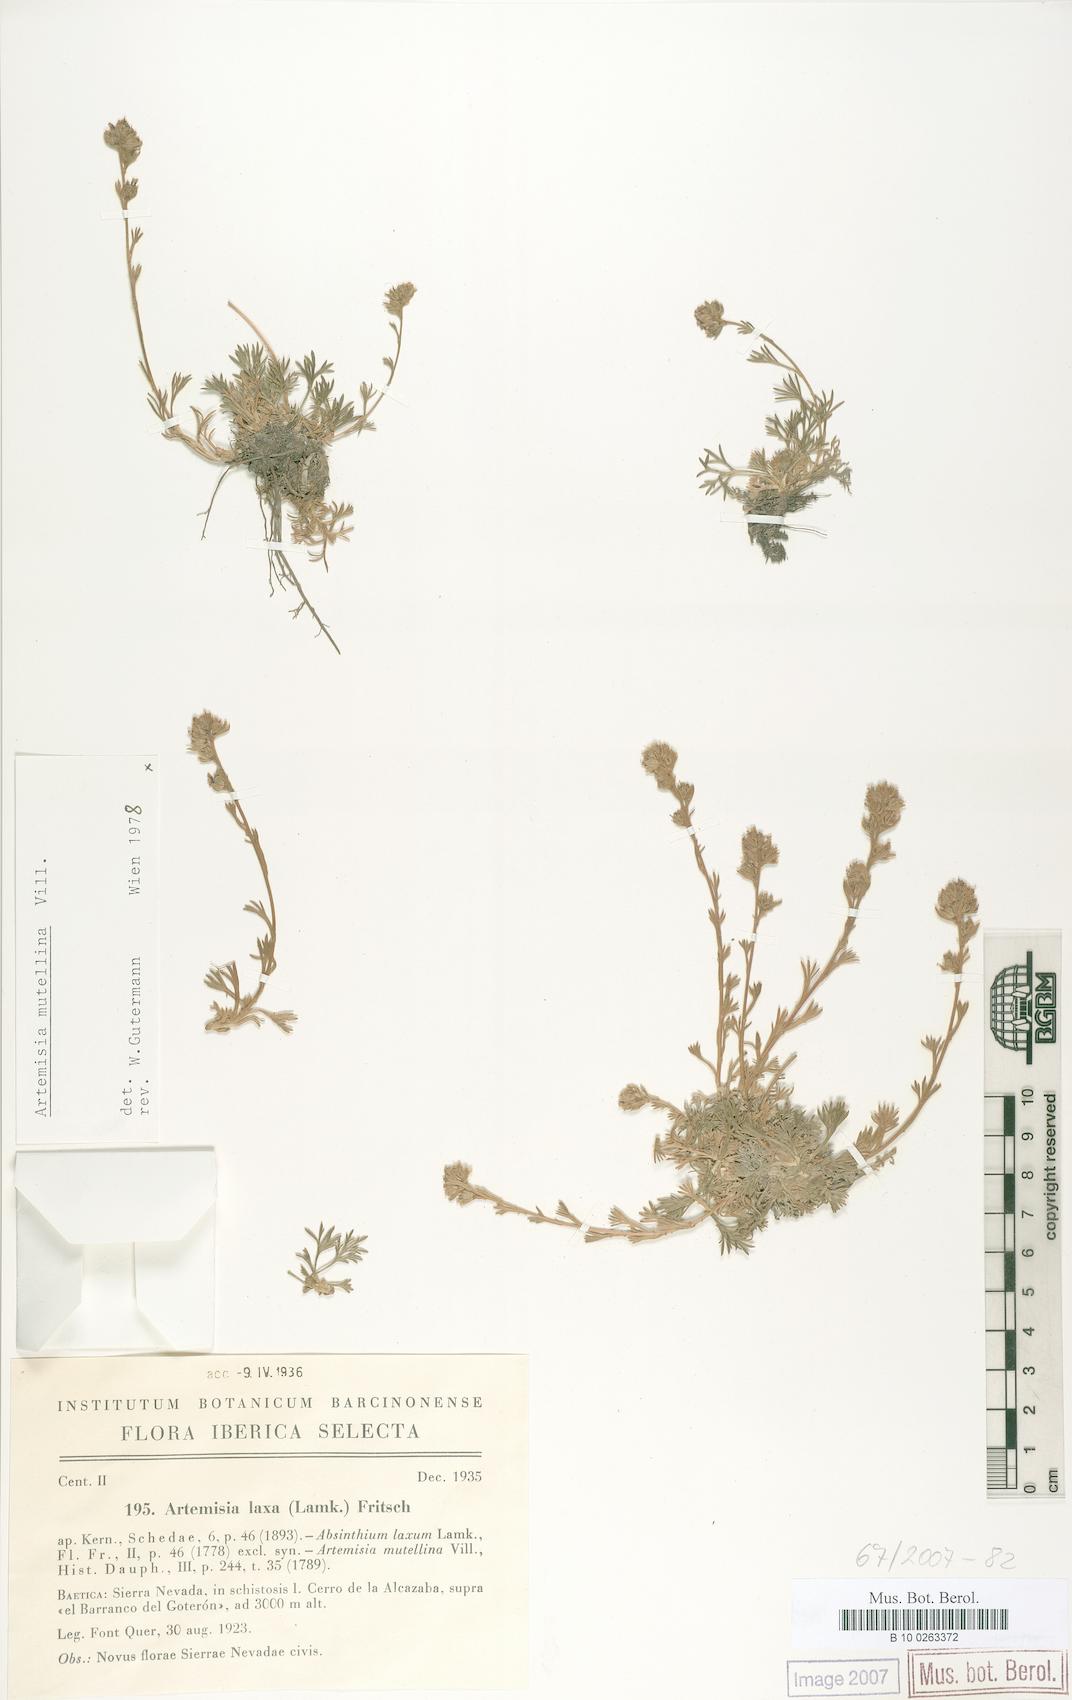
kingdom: Plantae
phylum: Tracheophyta
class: Magnoliopsida
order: Asterales
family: Asteraceae
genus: Artemisia
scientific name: Artemisia mutellina
